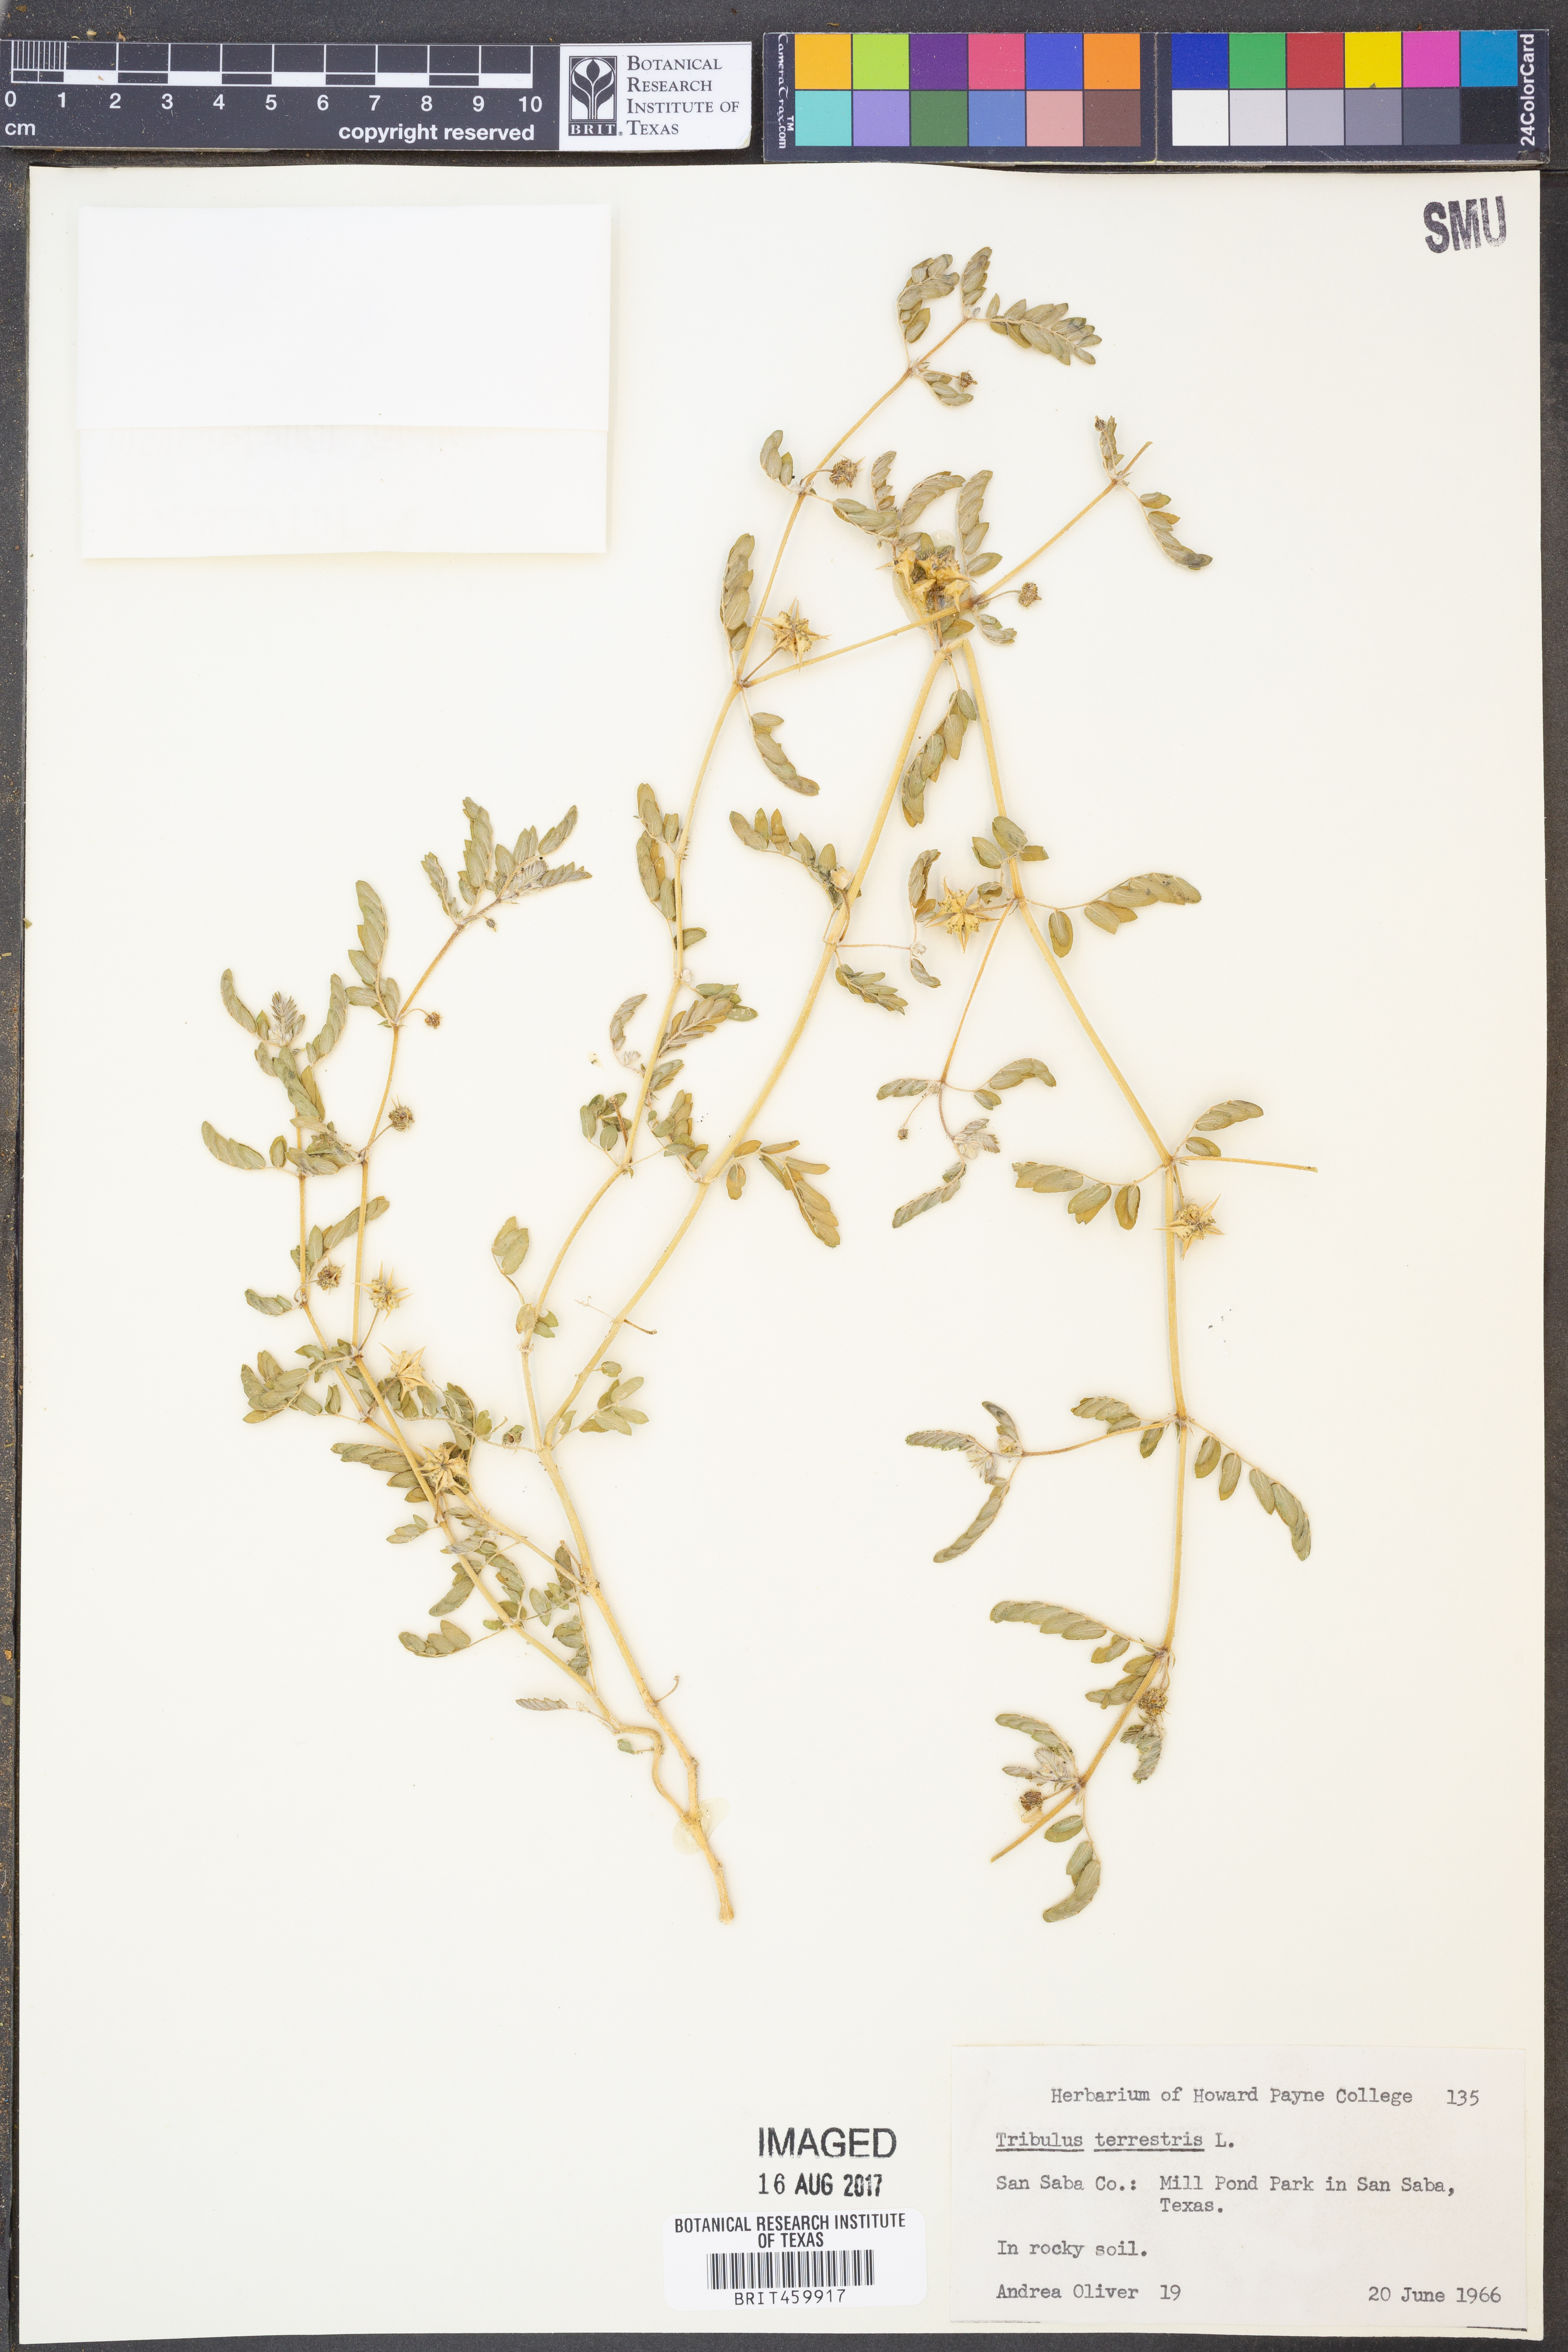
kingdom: Plantae
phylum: Tracheophyta
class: Magnoliopsida
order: Zygophyllales
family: Zygophyllaceae
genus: Tribulus
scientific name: Tribulus terrestris
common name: Puncturevine
